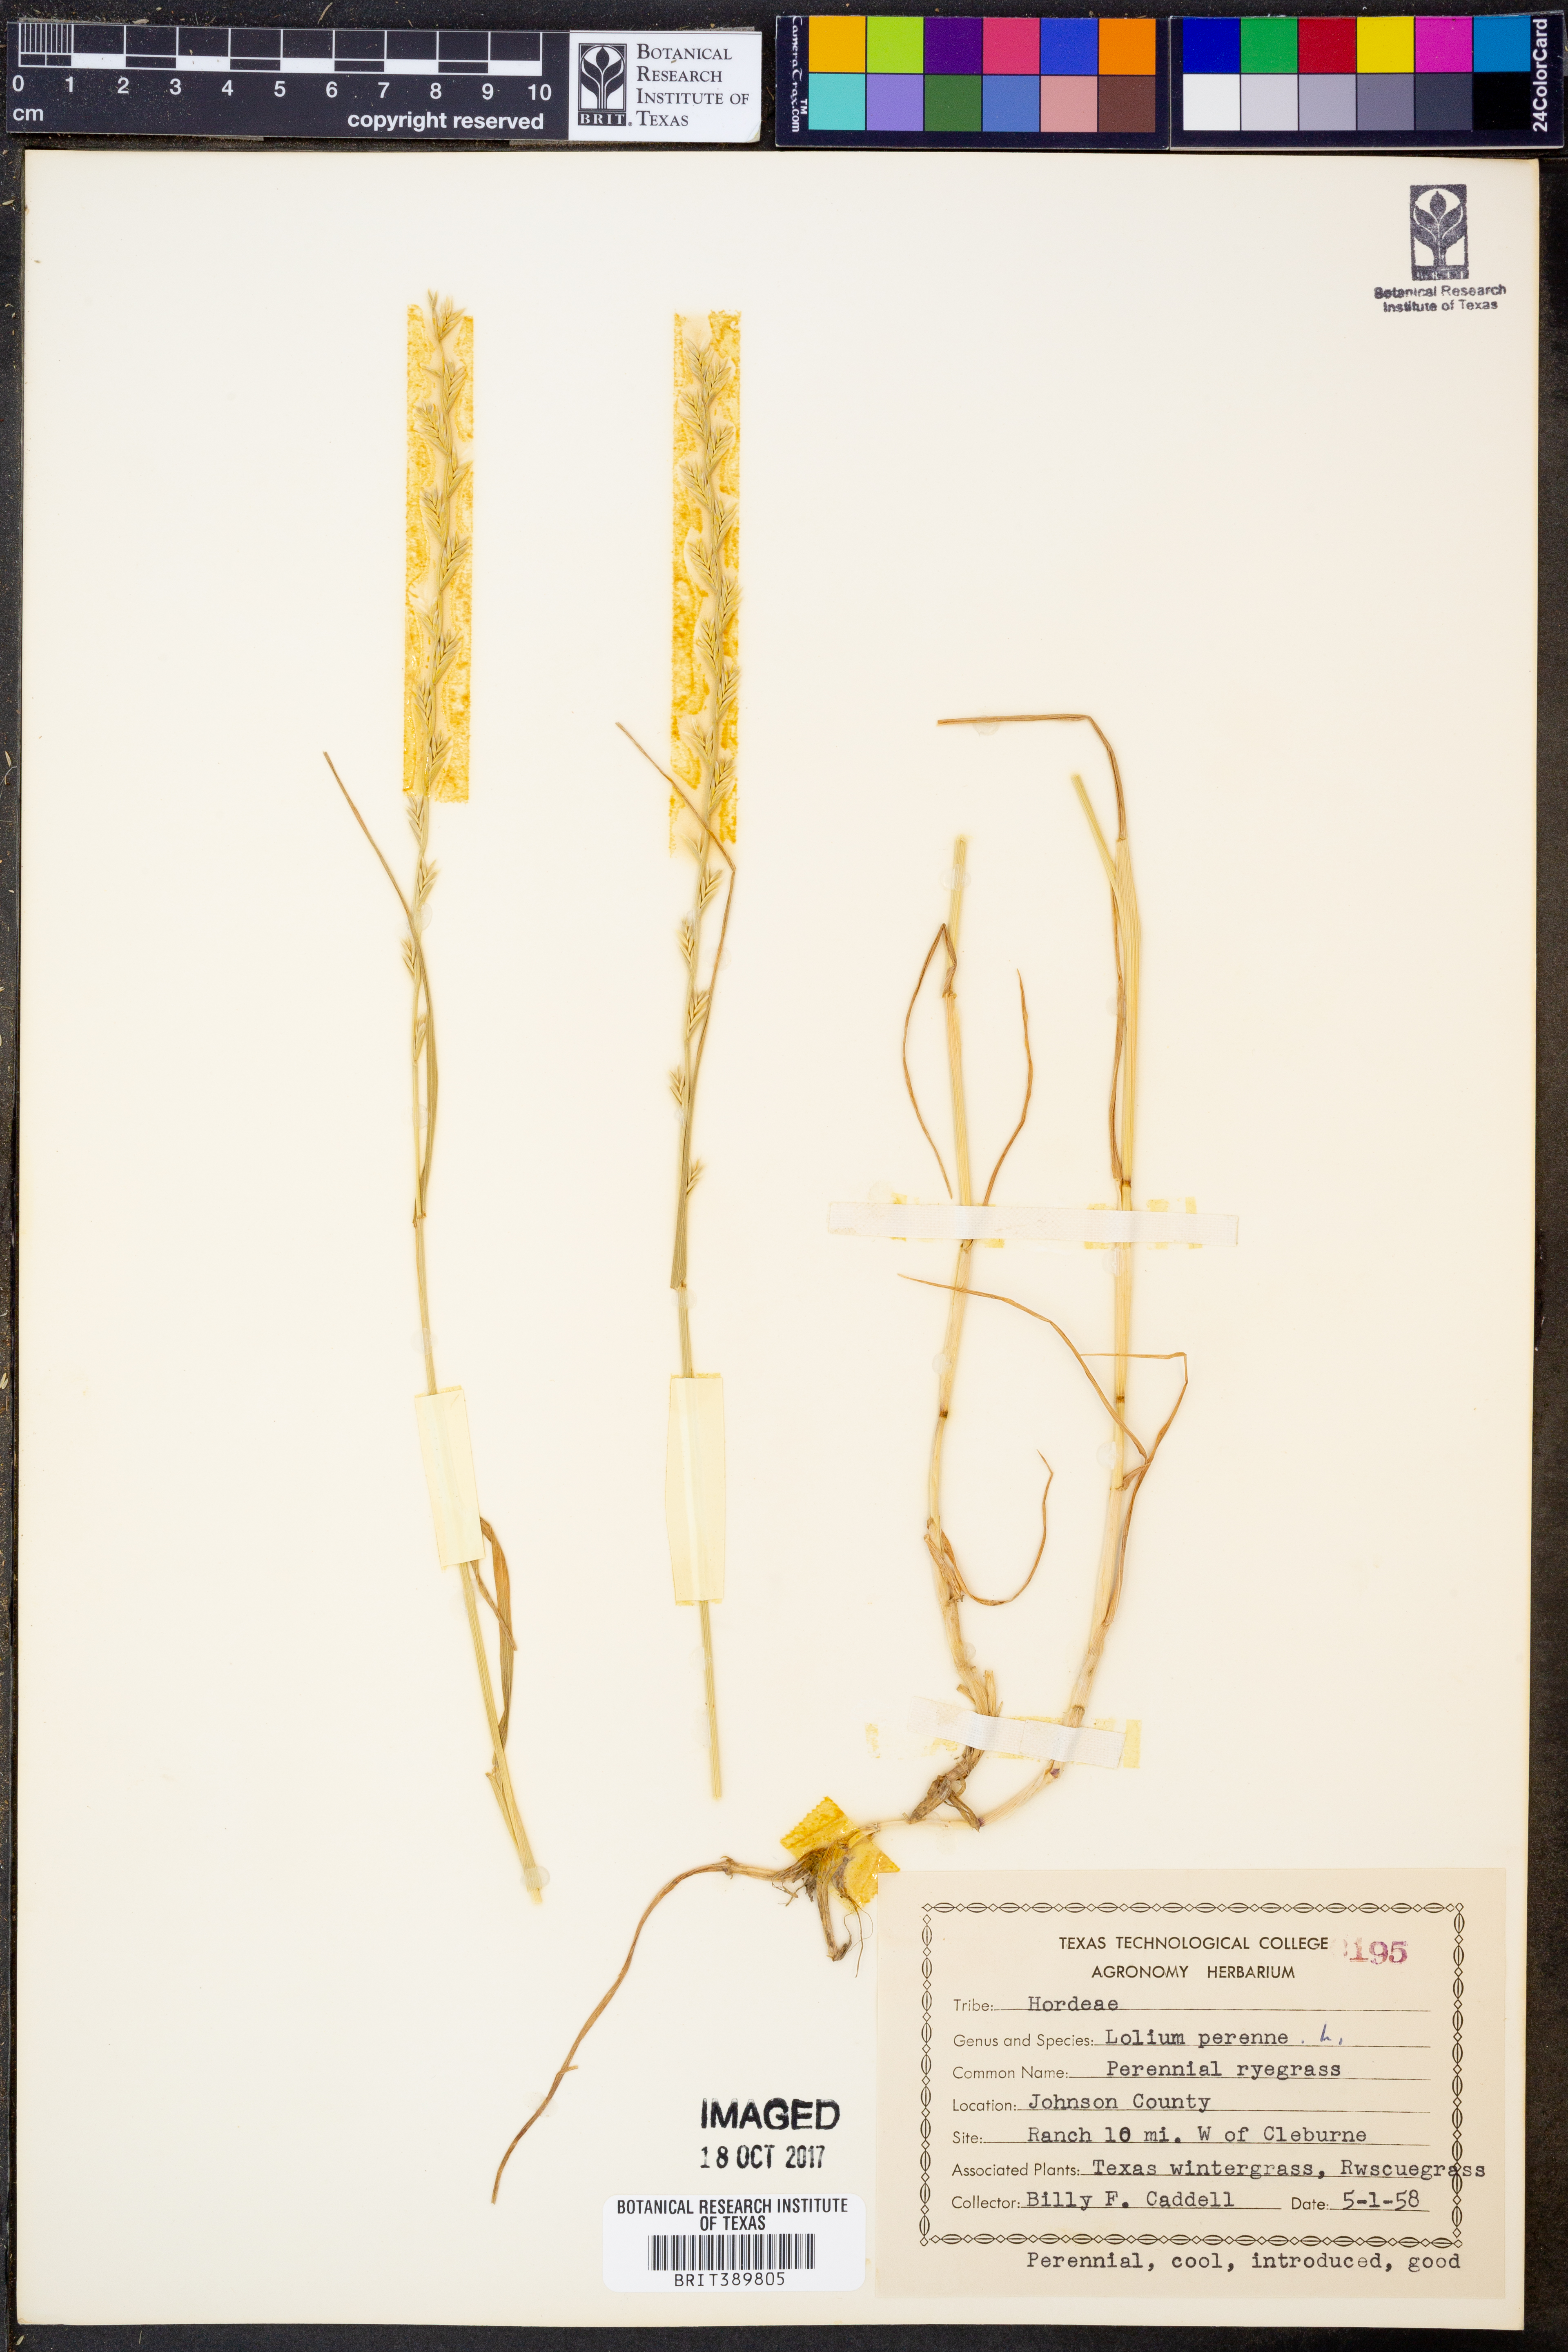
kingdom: Plantae
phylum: Tracheophyta
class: Liliopsida
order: Poales
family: Poaceae
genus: Lolium
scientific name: Lolium perenne
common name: Perennial ryegrass
